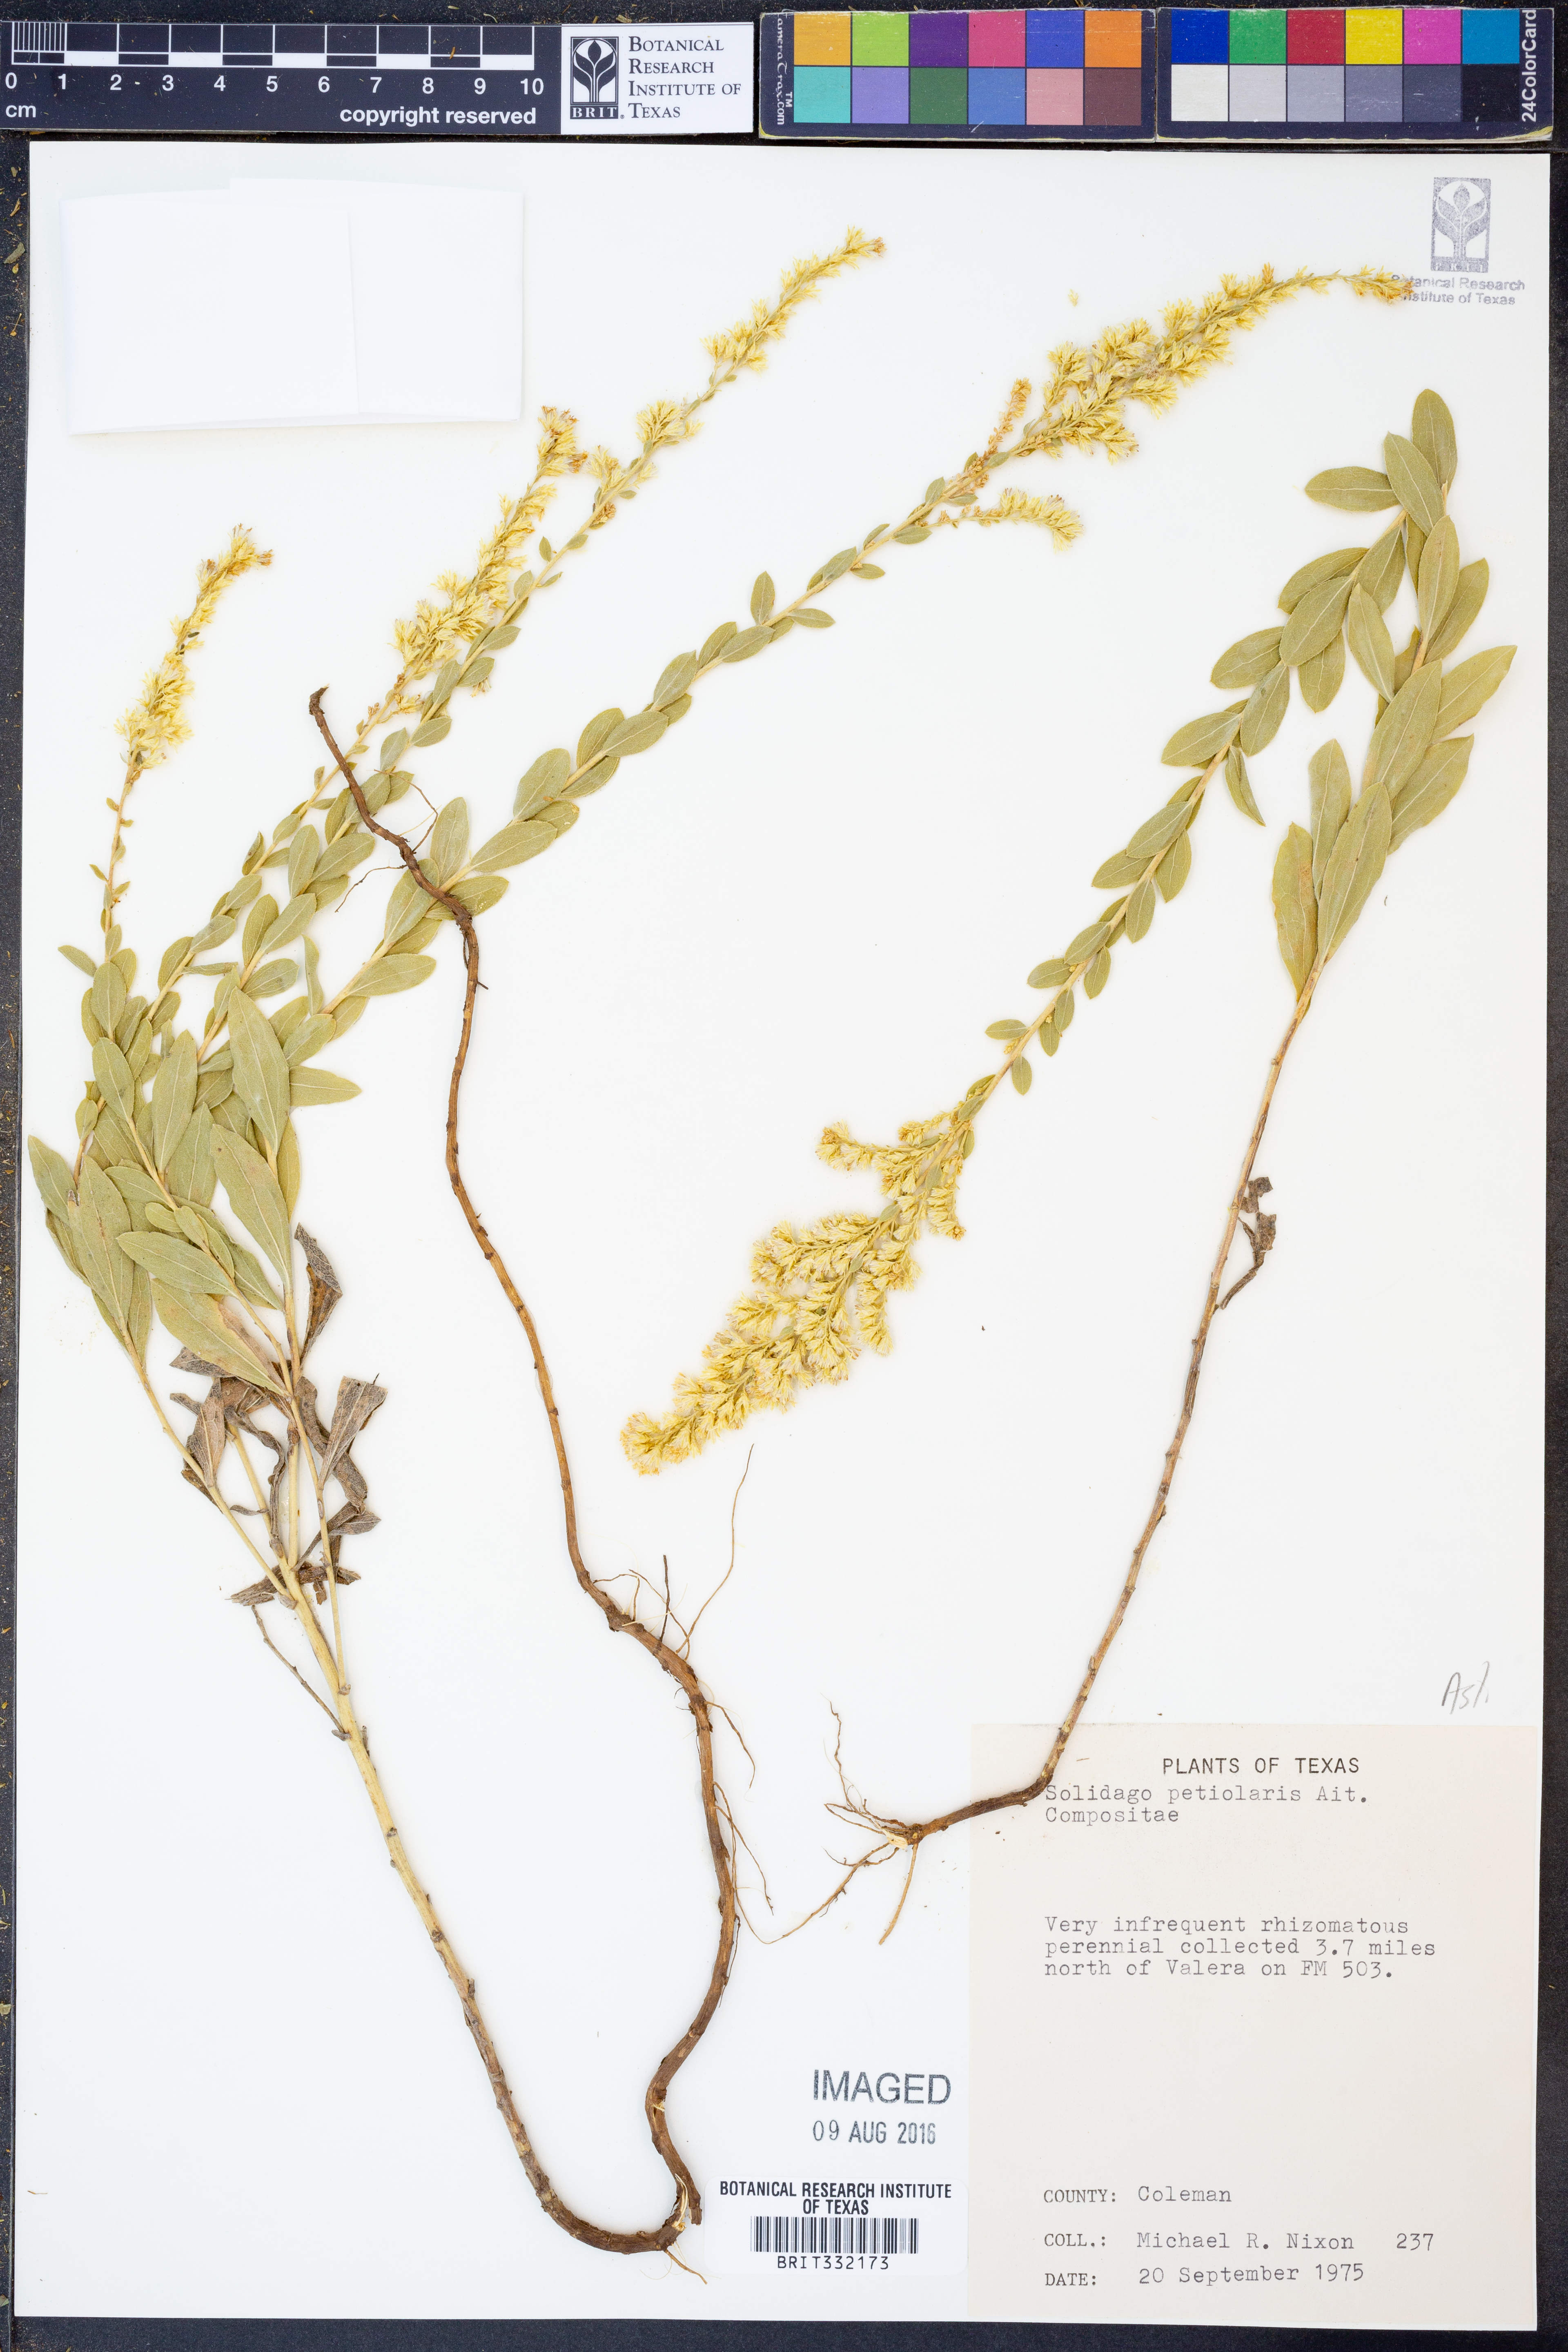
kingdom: Plantae
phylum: Tracheophyta
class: Magnoliopsida
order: Asterales
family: Asteraceae
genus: Solidago
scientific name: Solidago petiolaris
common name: Downy ragged goldenrod
